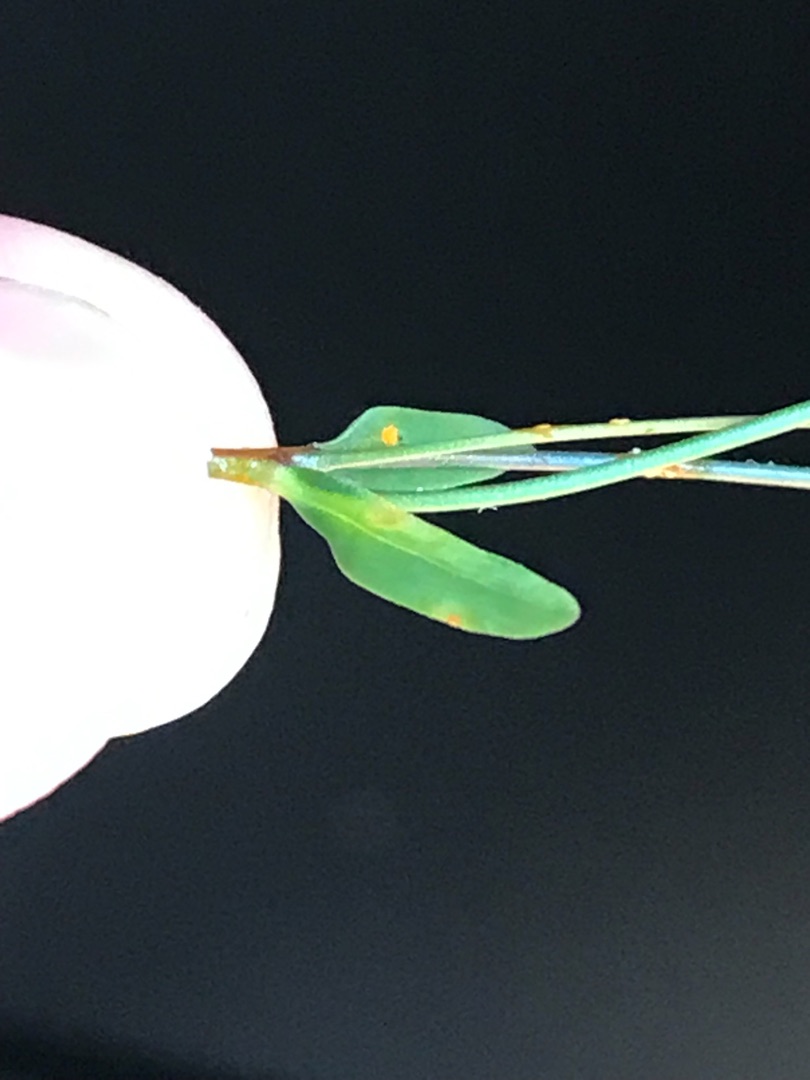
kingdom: Plantae
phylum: Tracheophyta
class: Magnoliopsida
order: Malpighiales
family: Linaceae
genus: Linum
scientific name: Linum catharticum
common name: Vild hør
